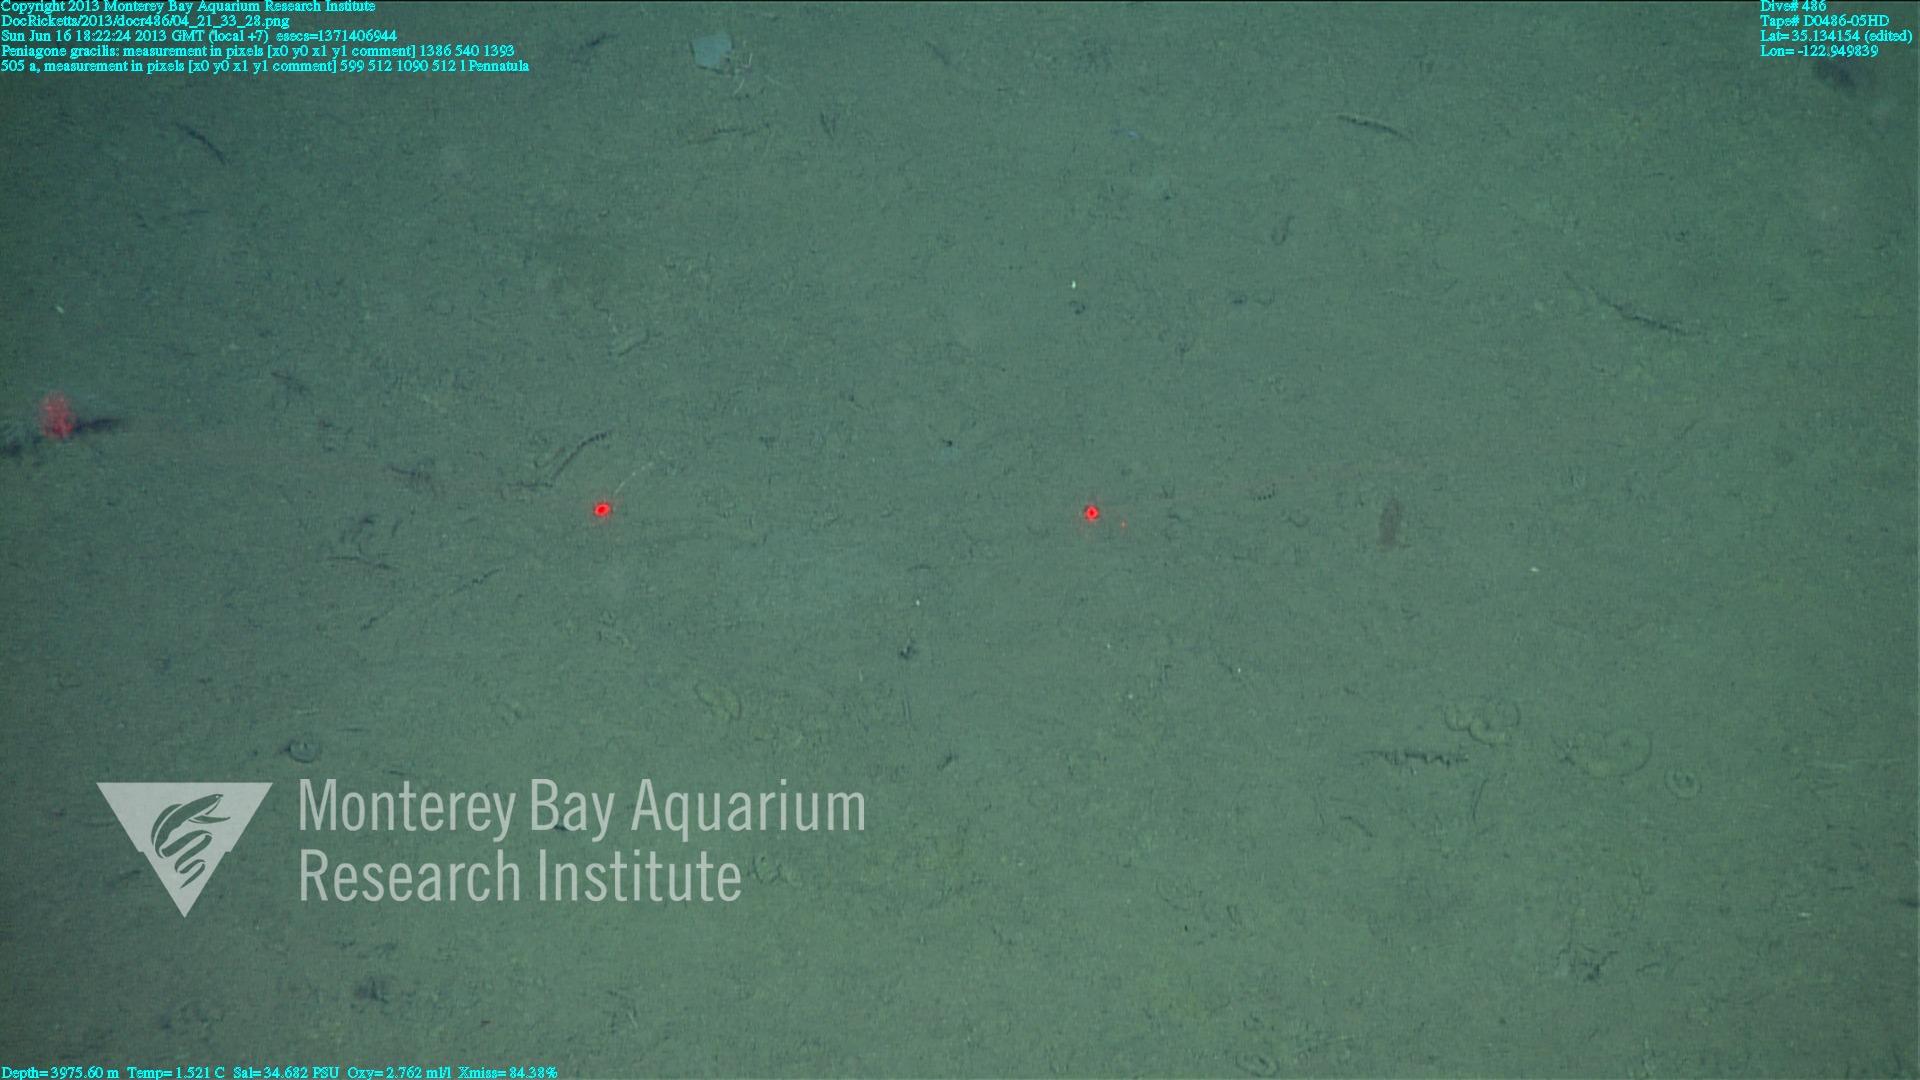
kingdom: Animalia
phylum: Cnidaria
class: Anthozoa
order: Scleralcyonacea
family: Pennatulidae
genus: Pennatula
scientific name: Pennatula
